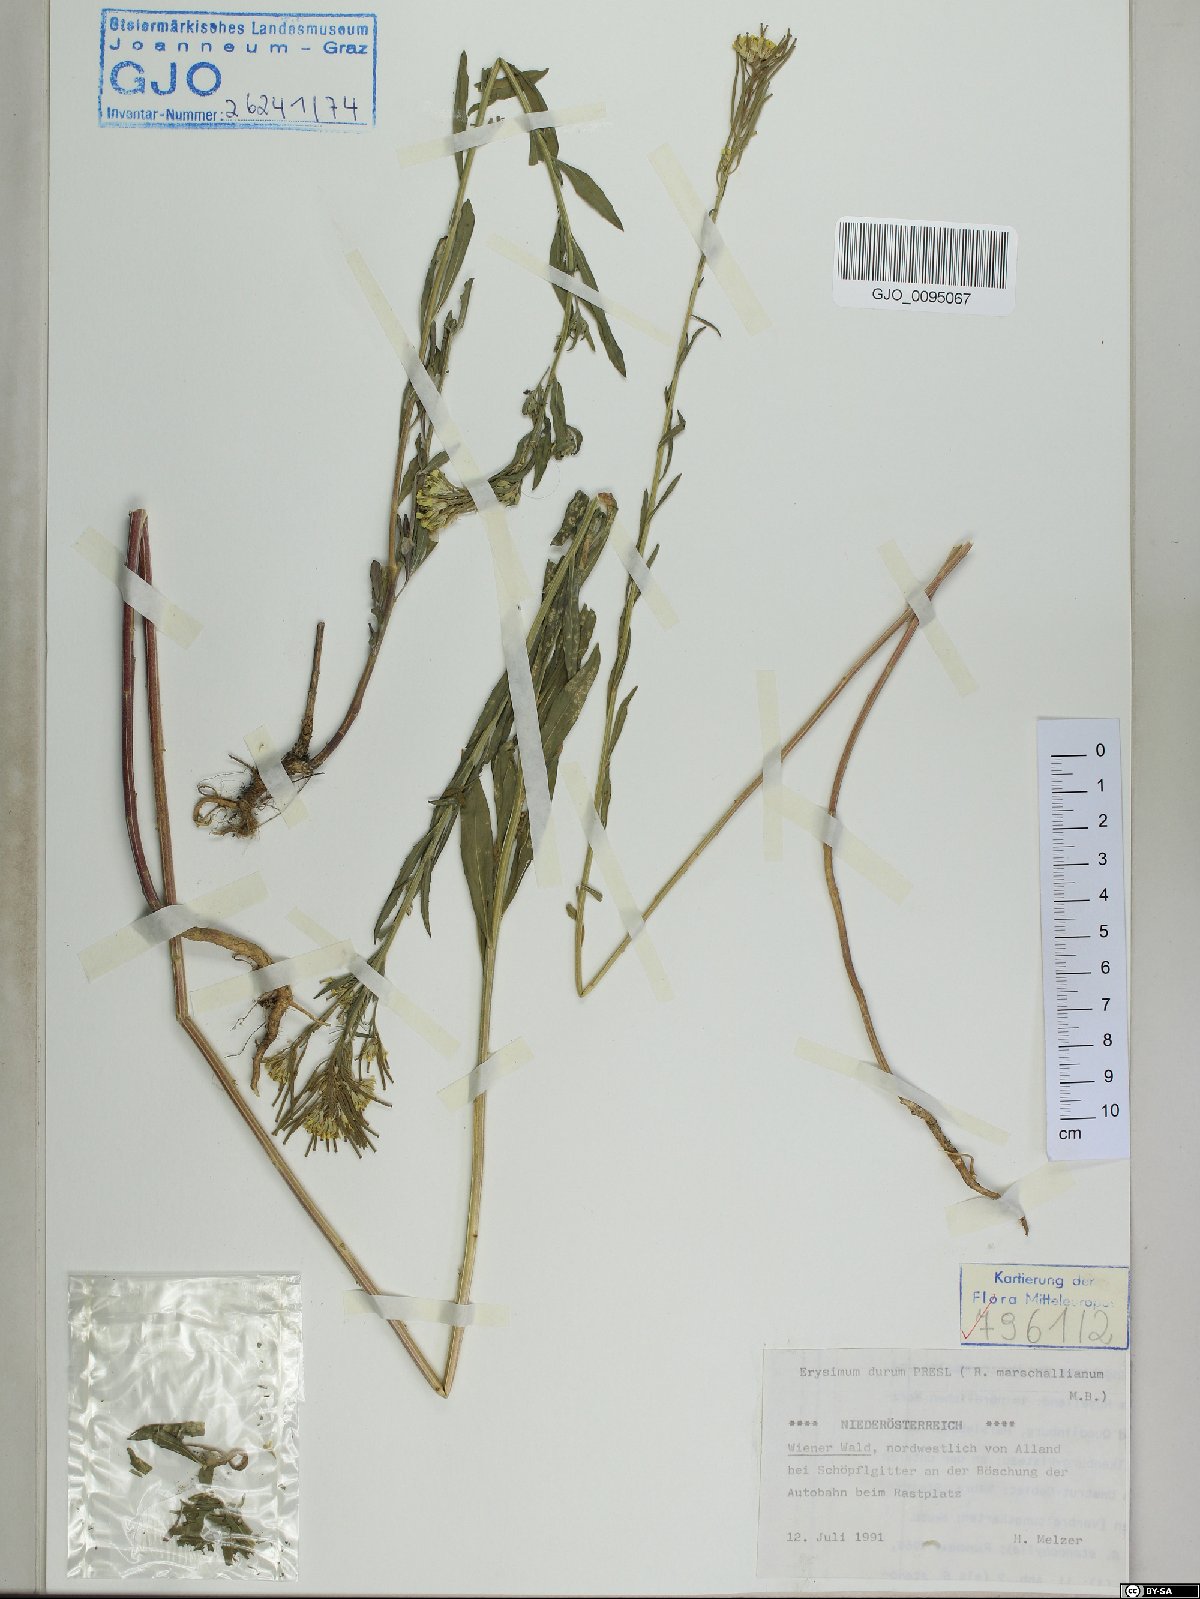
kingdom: Plantae
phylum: Tracheophyta
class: Magnoliopsida
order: Brassicales
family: Brassicaceae
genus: Erysimum
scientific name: Erysimum marschallianum
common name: Hard wallflower
